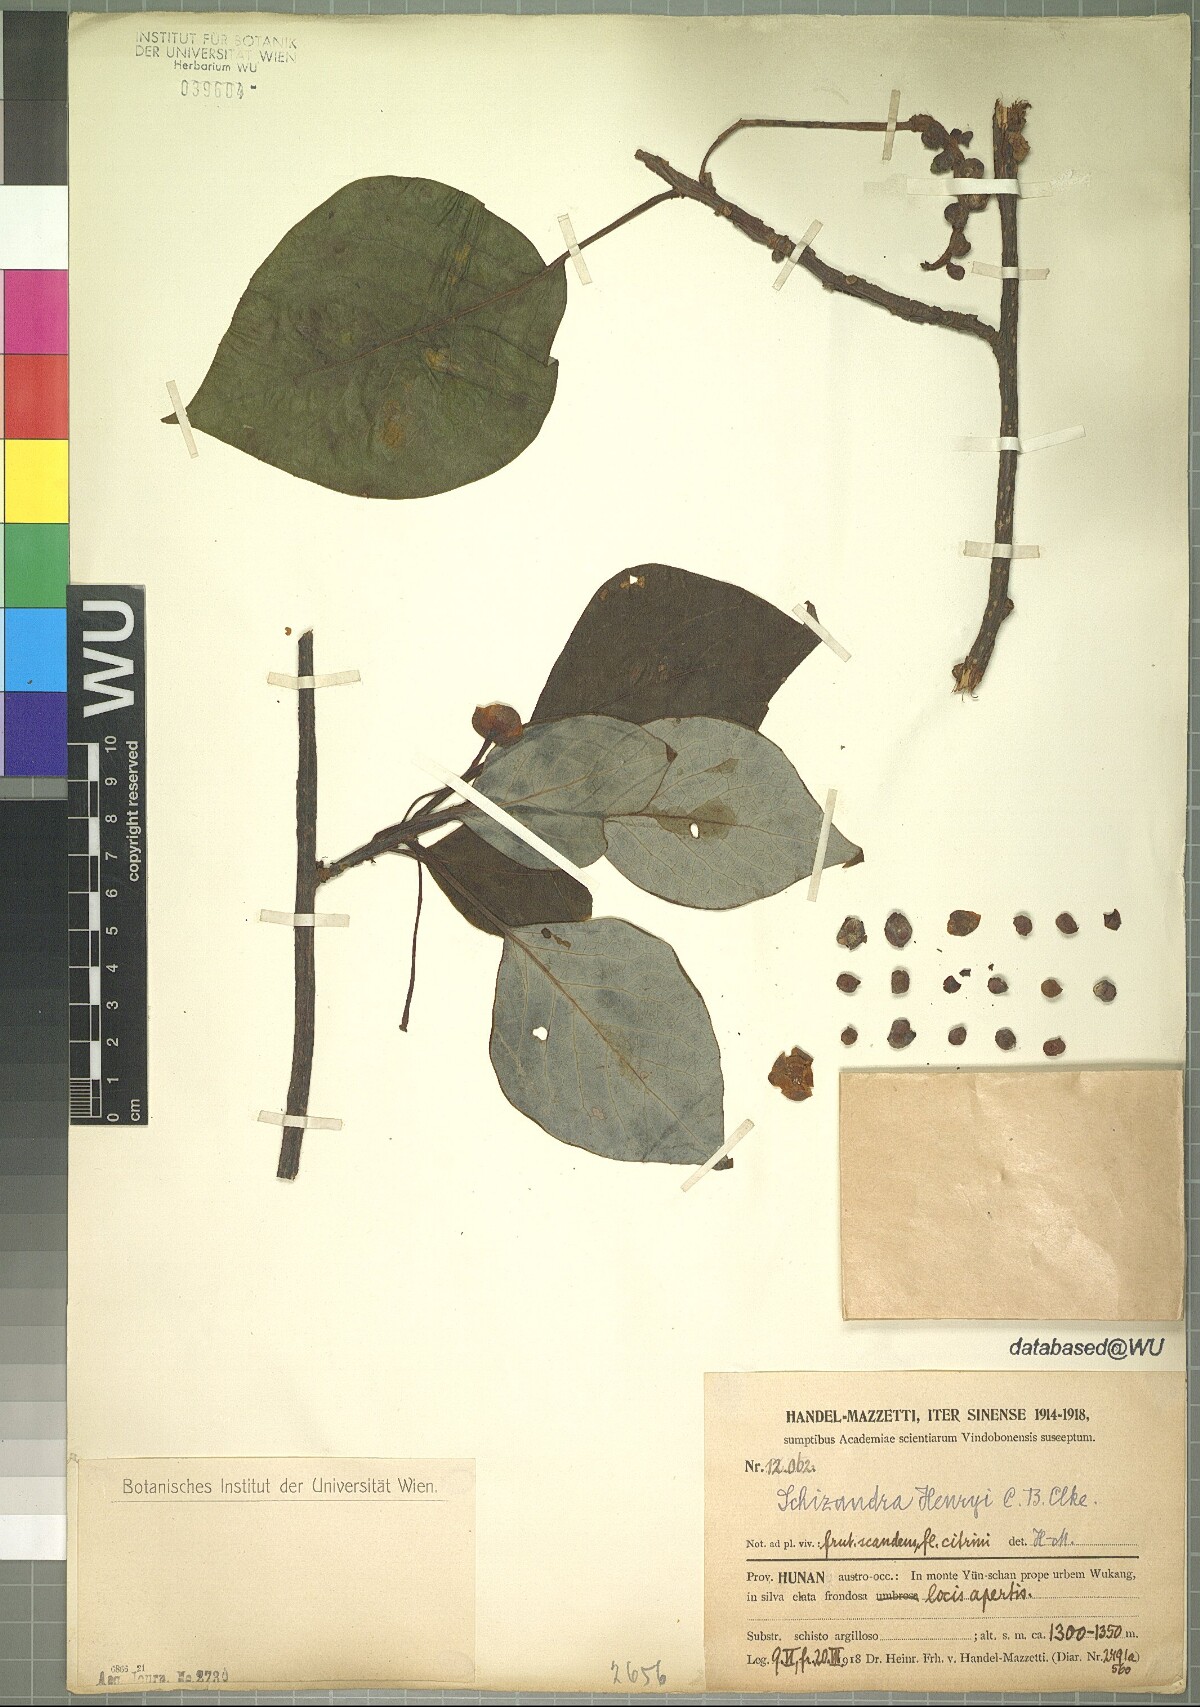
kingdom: Plantae
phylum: Tracheophyta
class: Magnoliopsida
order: Austrobaileyales
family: Schisandraceae
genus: Schisandra
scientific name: Schisandra henryi
